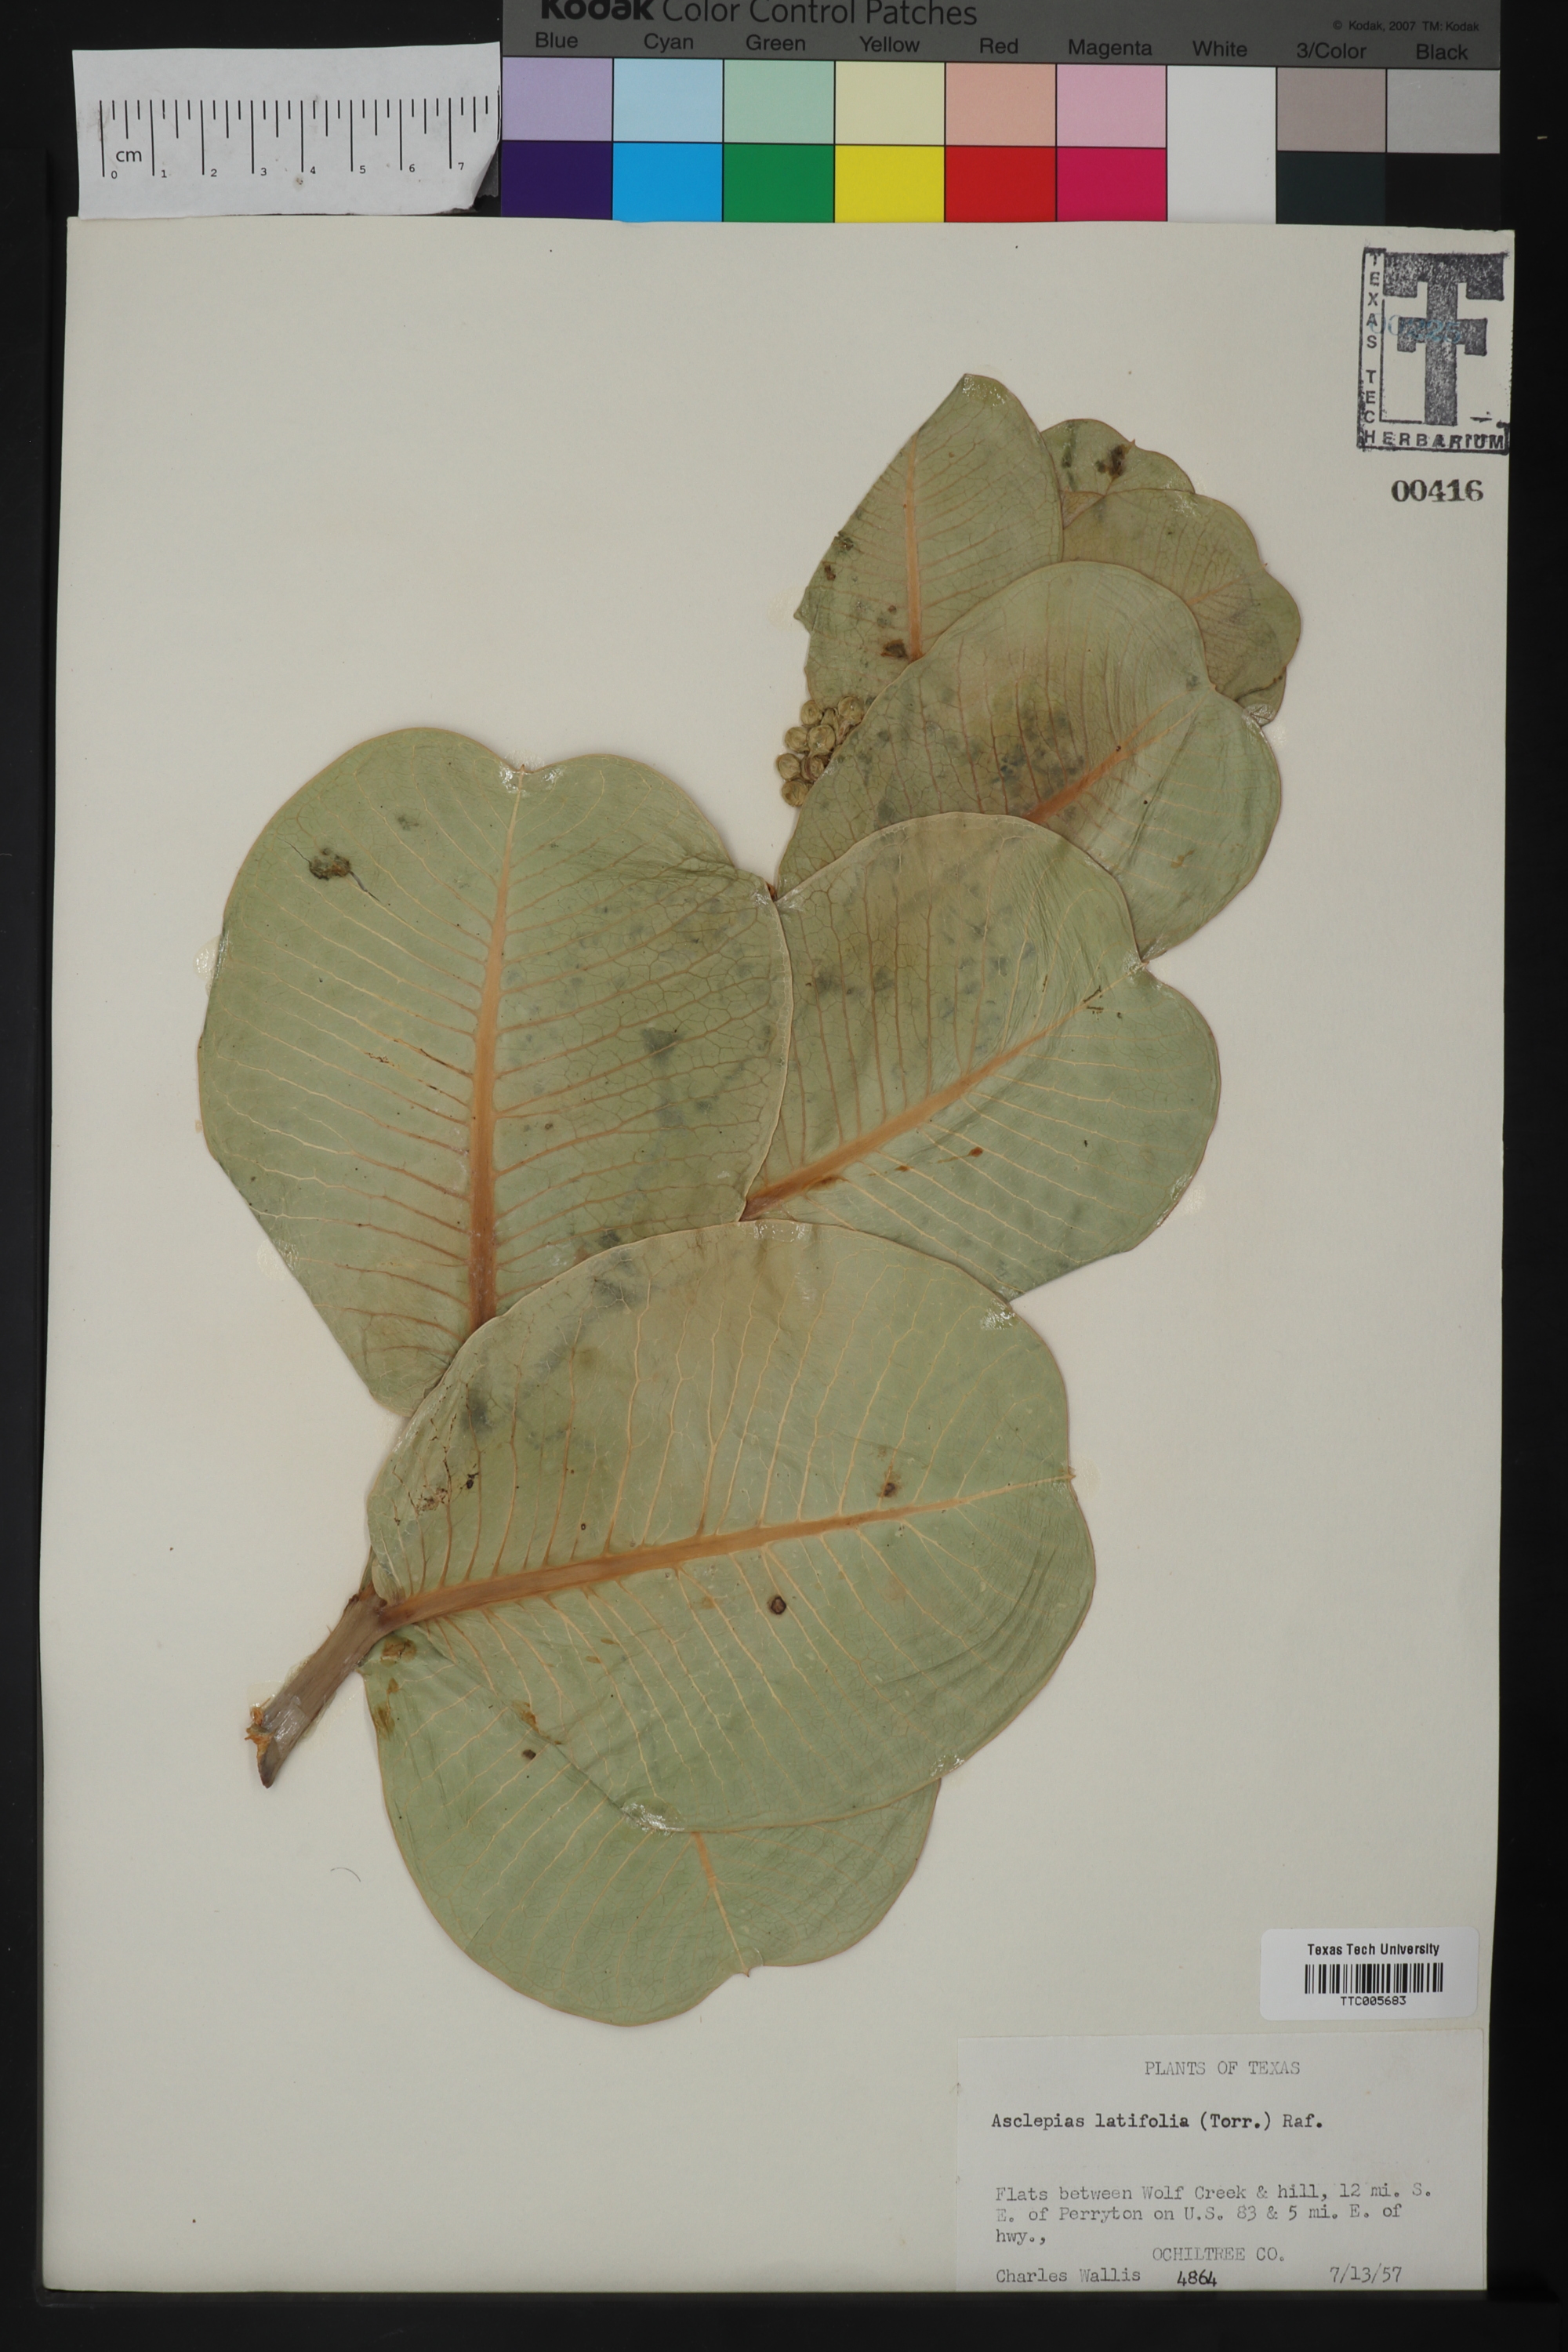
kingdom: Plantae
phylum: Tracheophyta
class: Magnoliopsida
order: Gentianales
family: Apocynaceae
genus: Asclepias
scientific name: Asclepias latifolia
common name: Broadleaf milkweed
